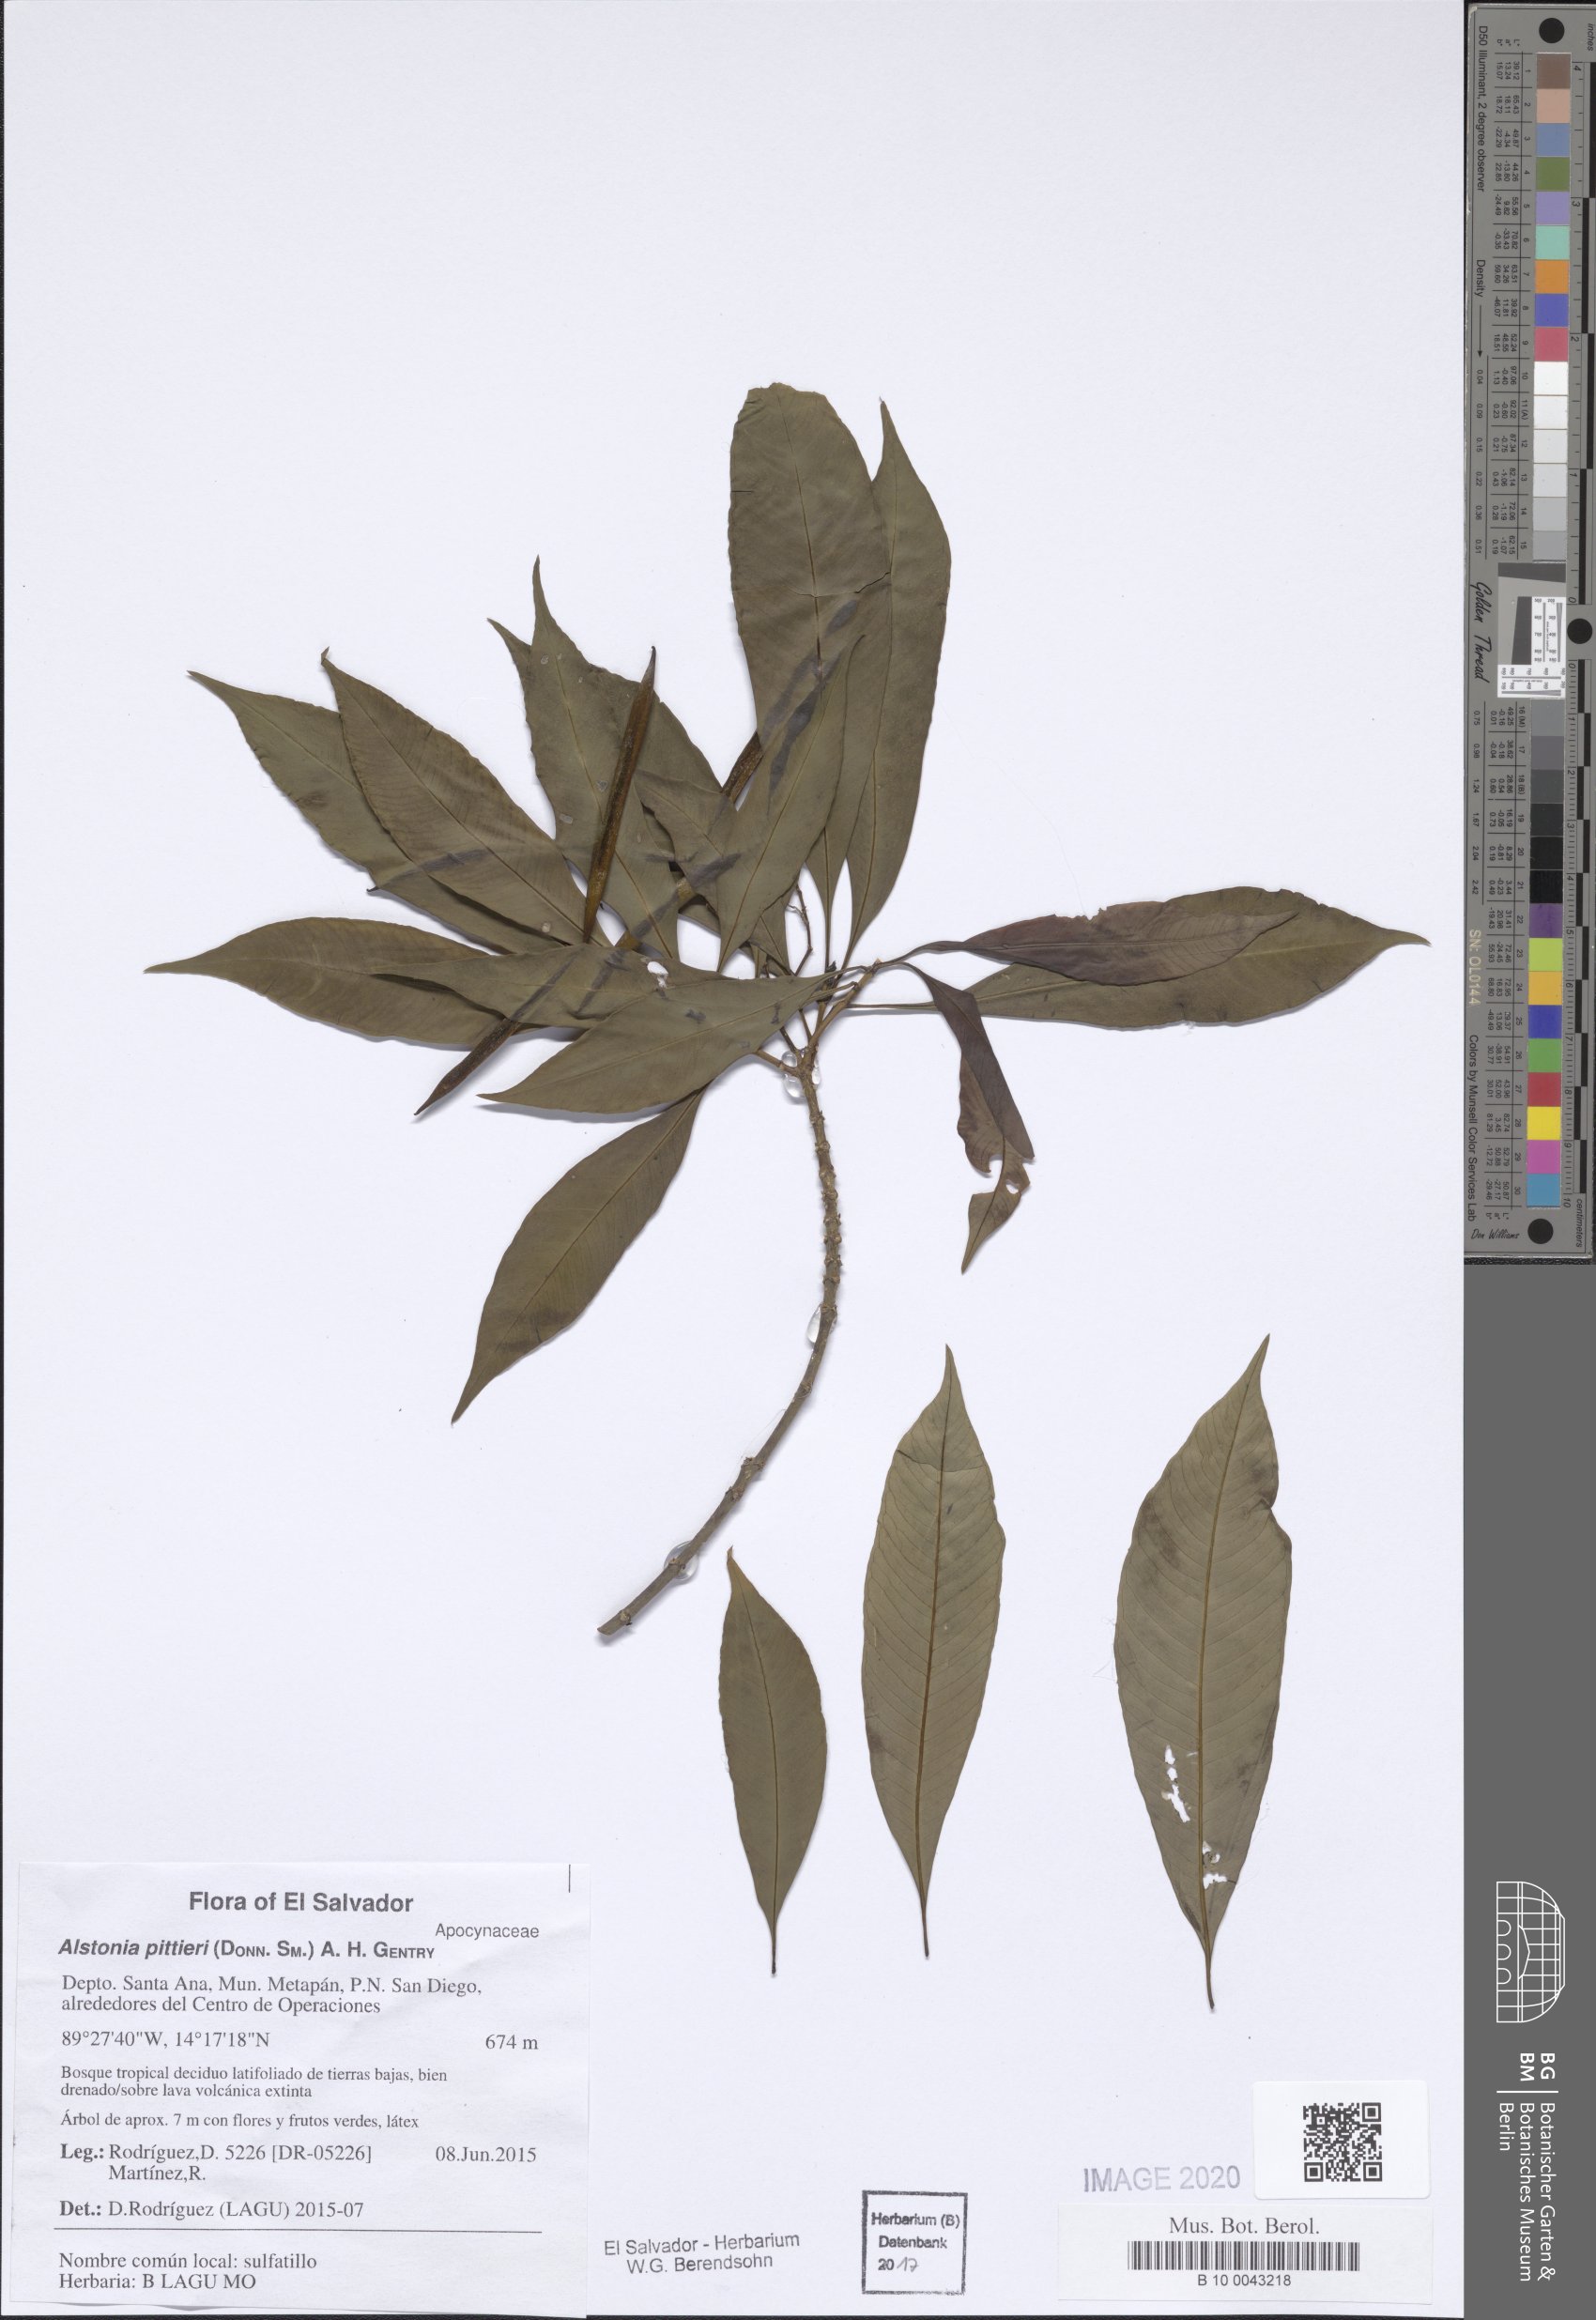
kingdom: Plantae
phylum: Tracheophyta
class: Magnoliopsida
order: Gentianales
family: Apocynaceae
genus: Tonduzia
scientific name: Tonduzia longifolia
